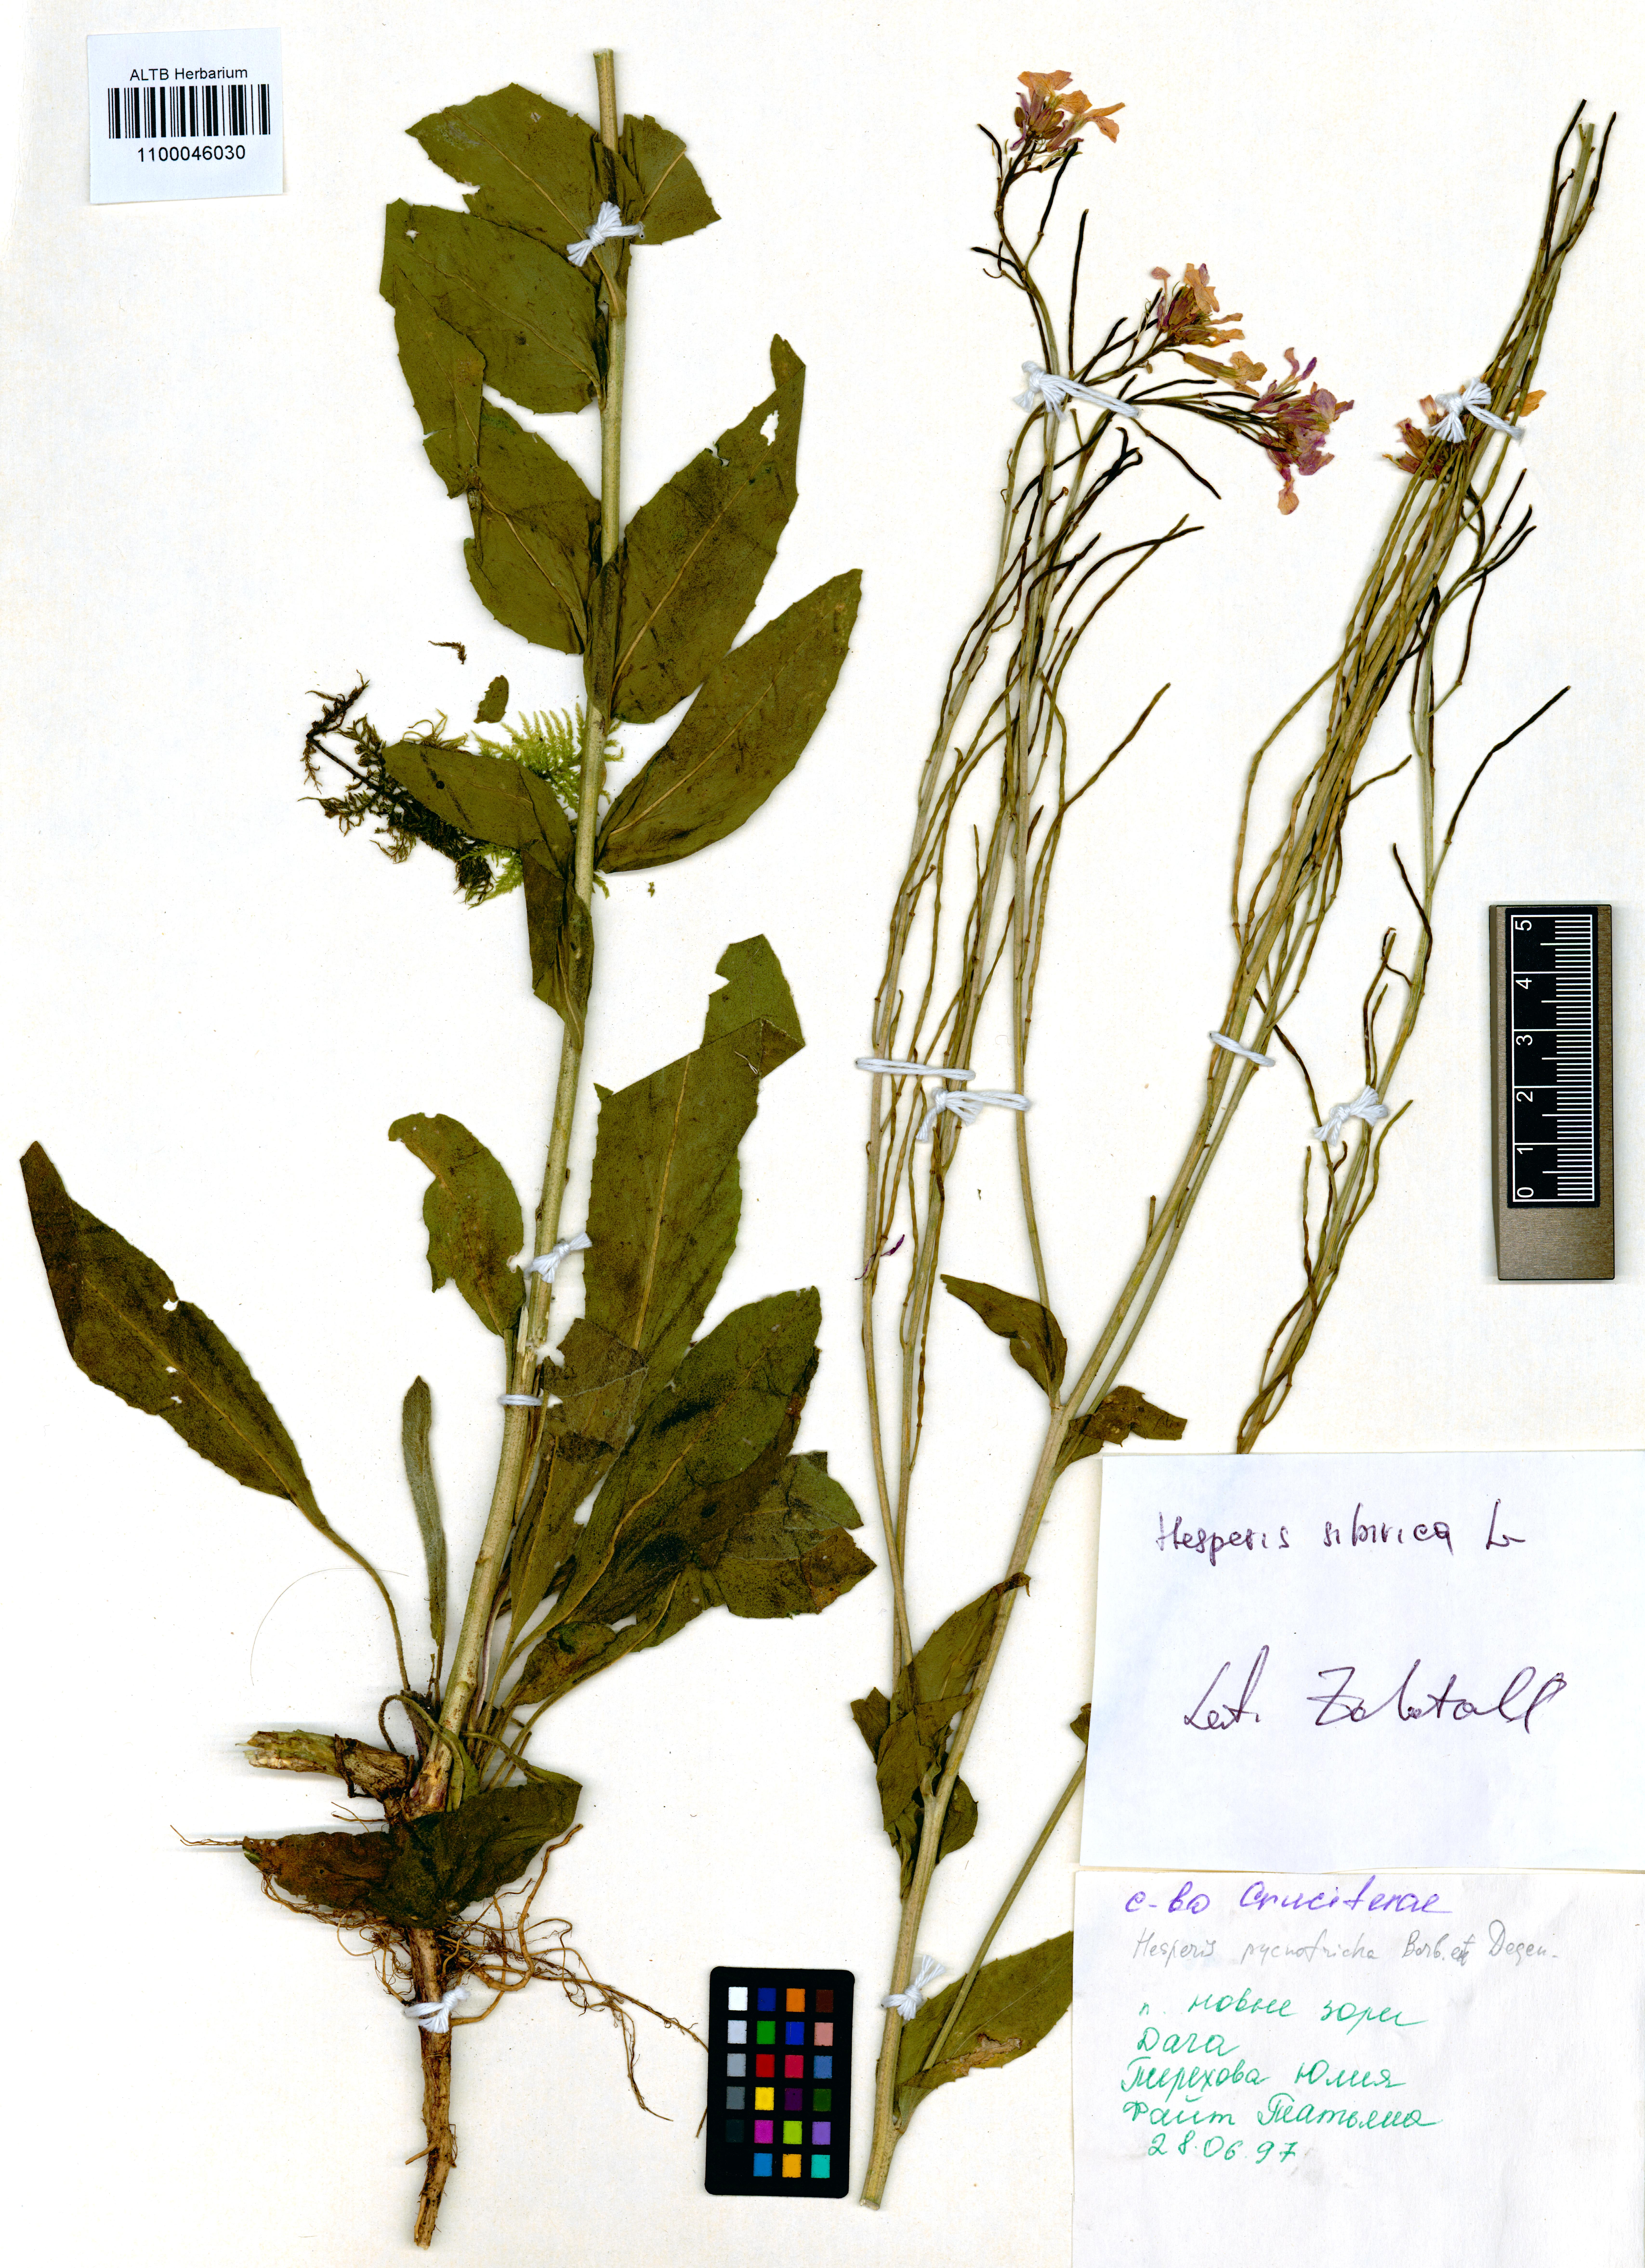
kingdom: Plantae
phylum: Tracheophyta
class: Magnoliopsida
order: Brassicales
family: Brassicaceae
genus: Hesperis
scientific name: Hesperis sibirica
